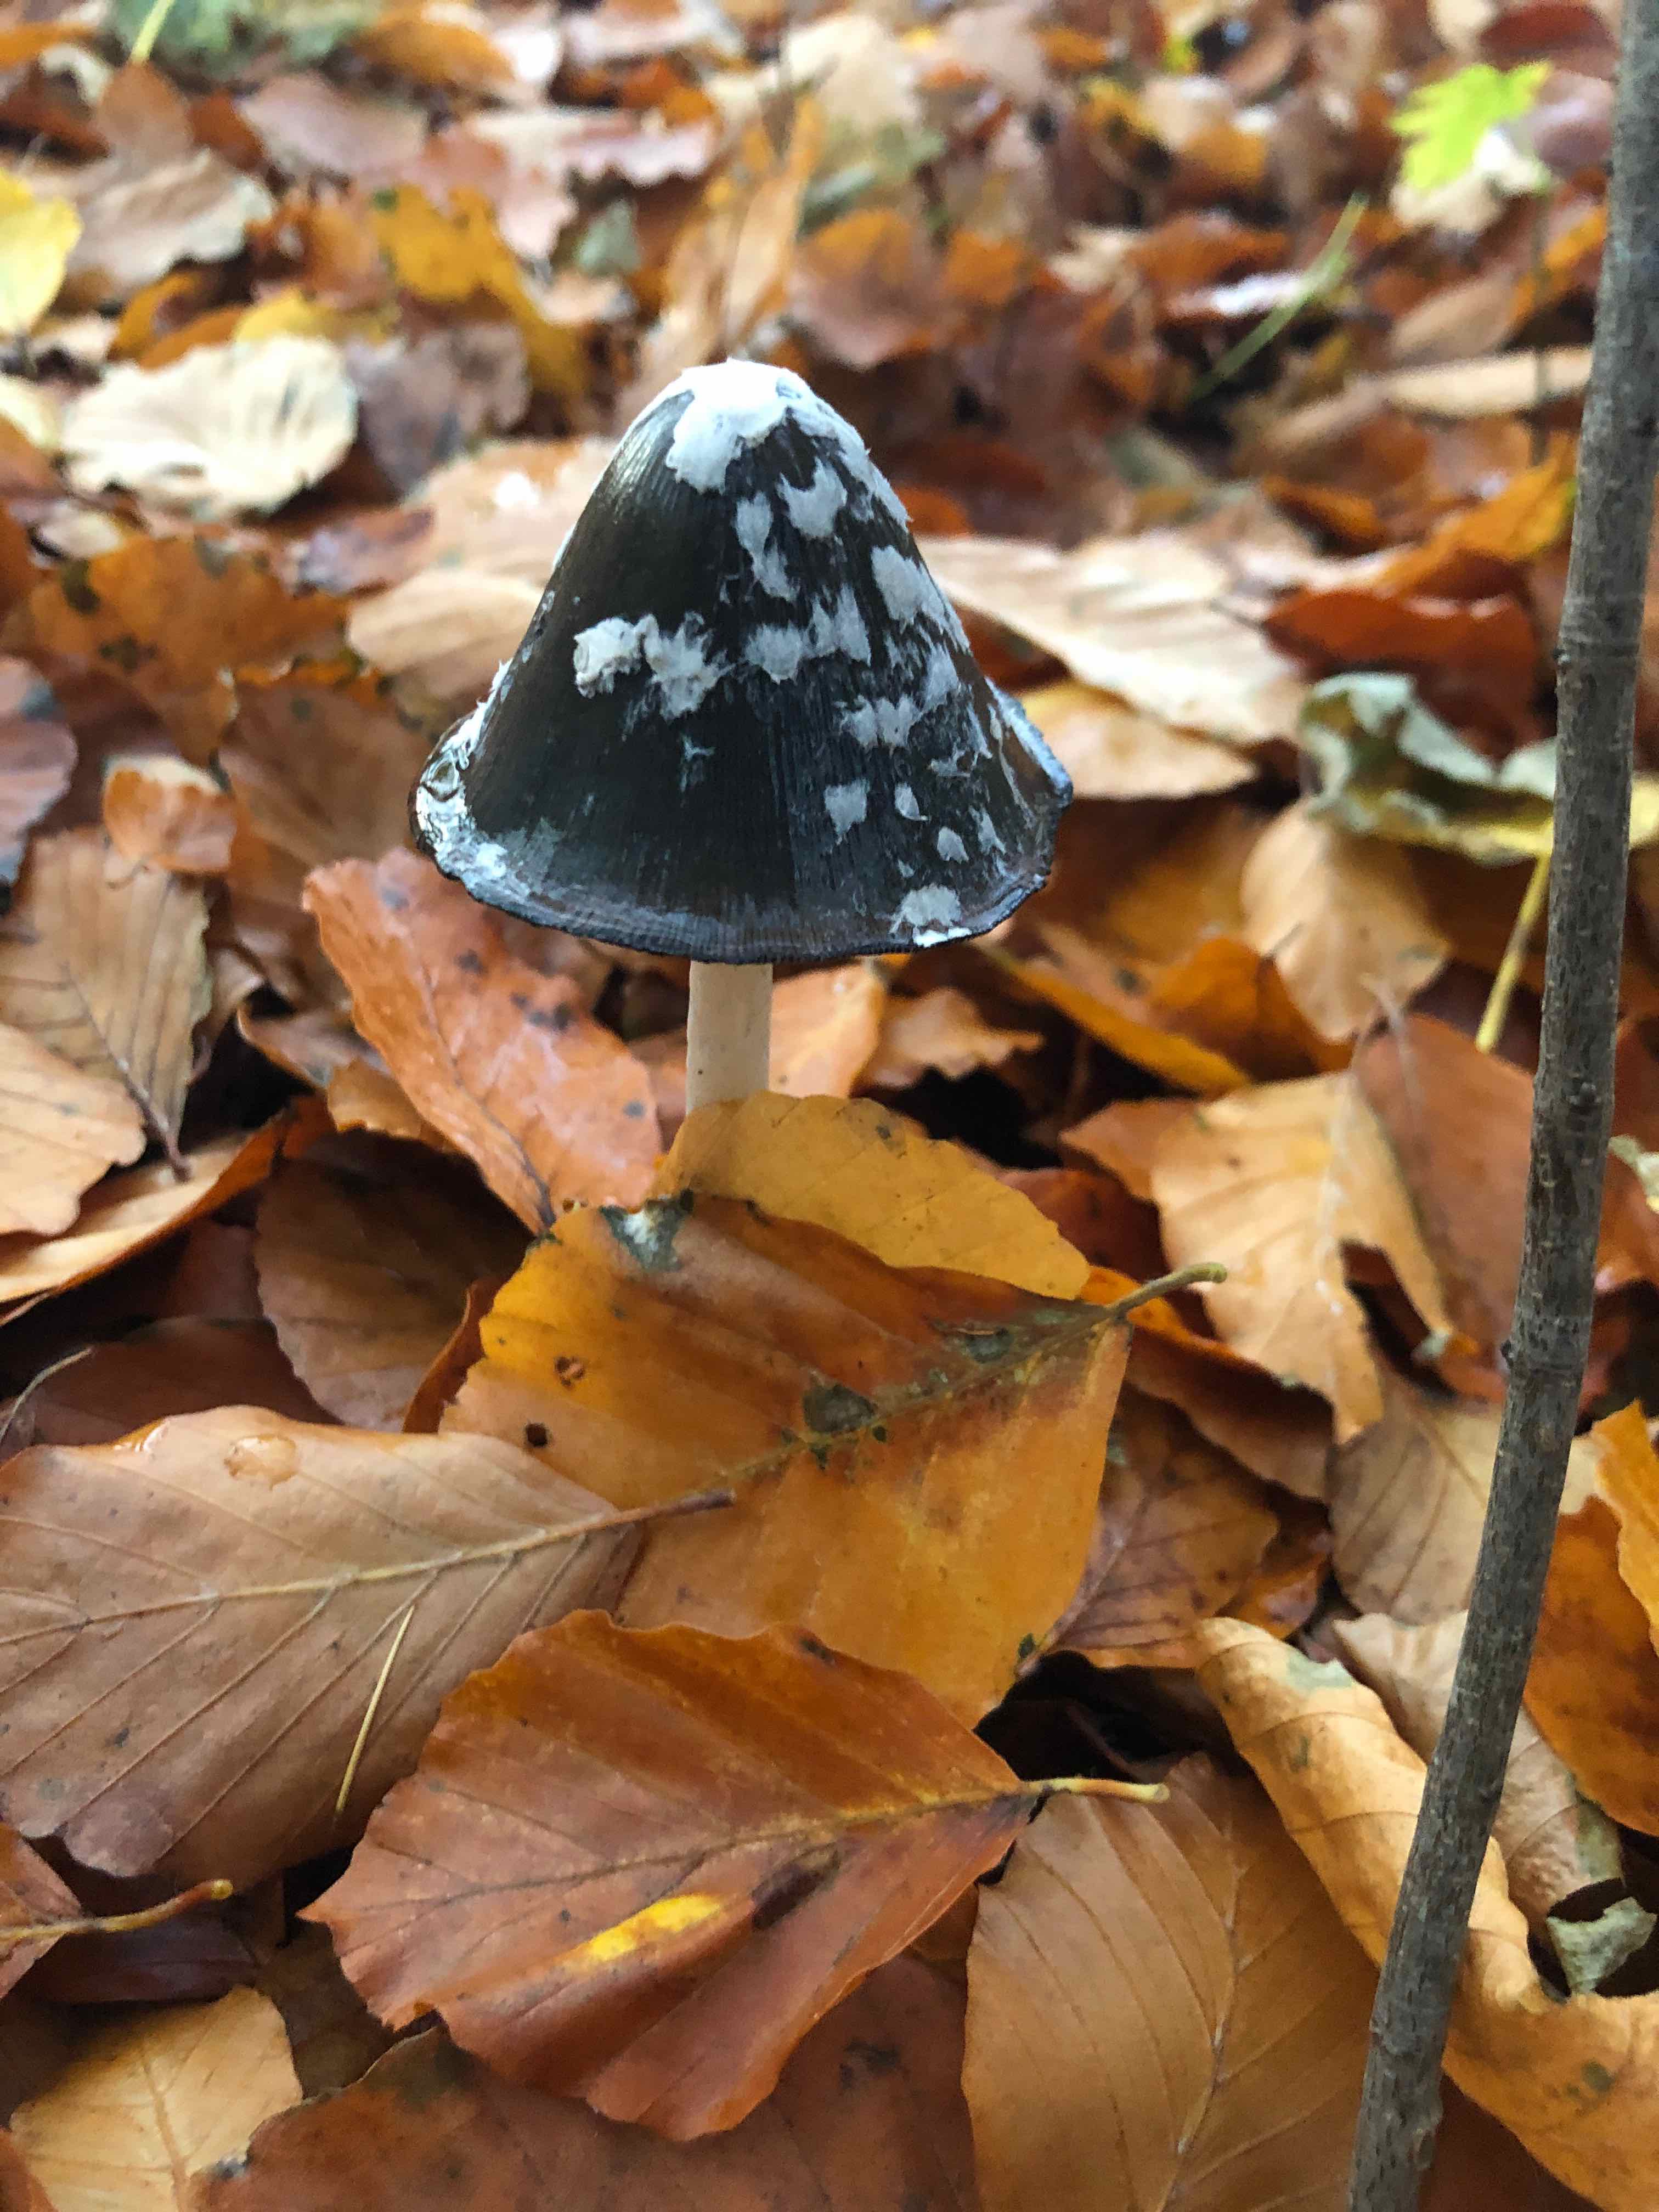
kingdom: Fungi
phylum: Basidiomycota
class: Agaricomycetes
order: Agaricales
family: Psathyrellaceae
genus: Coprinopsis
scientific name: Coprinopsis picacea
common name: skade-blækhat
